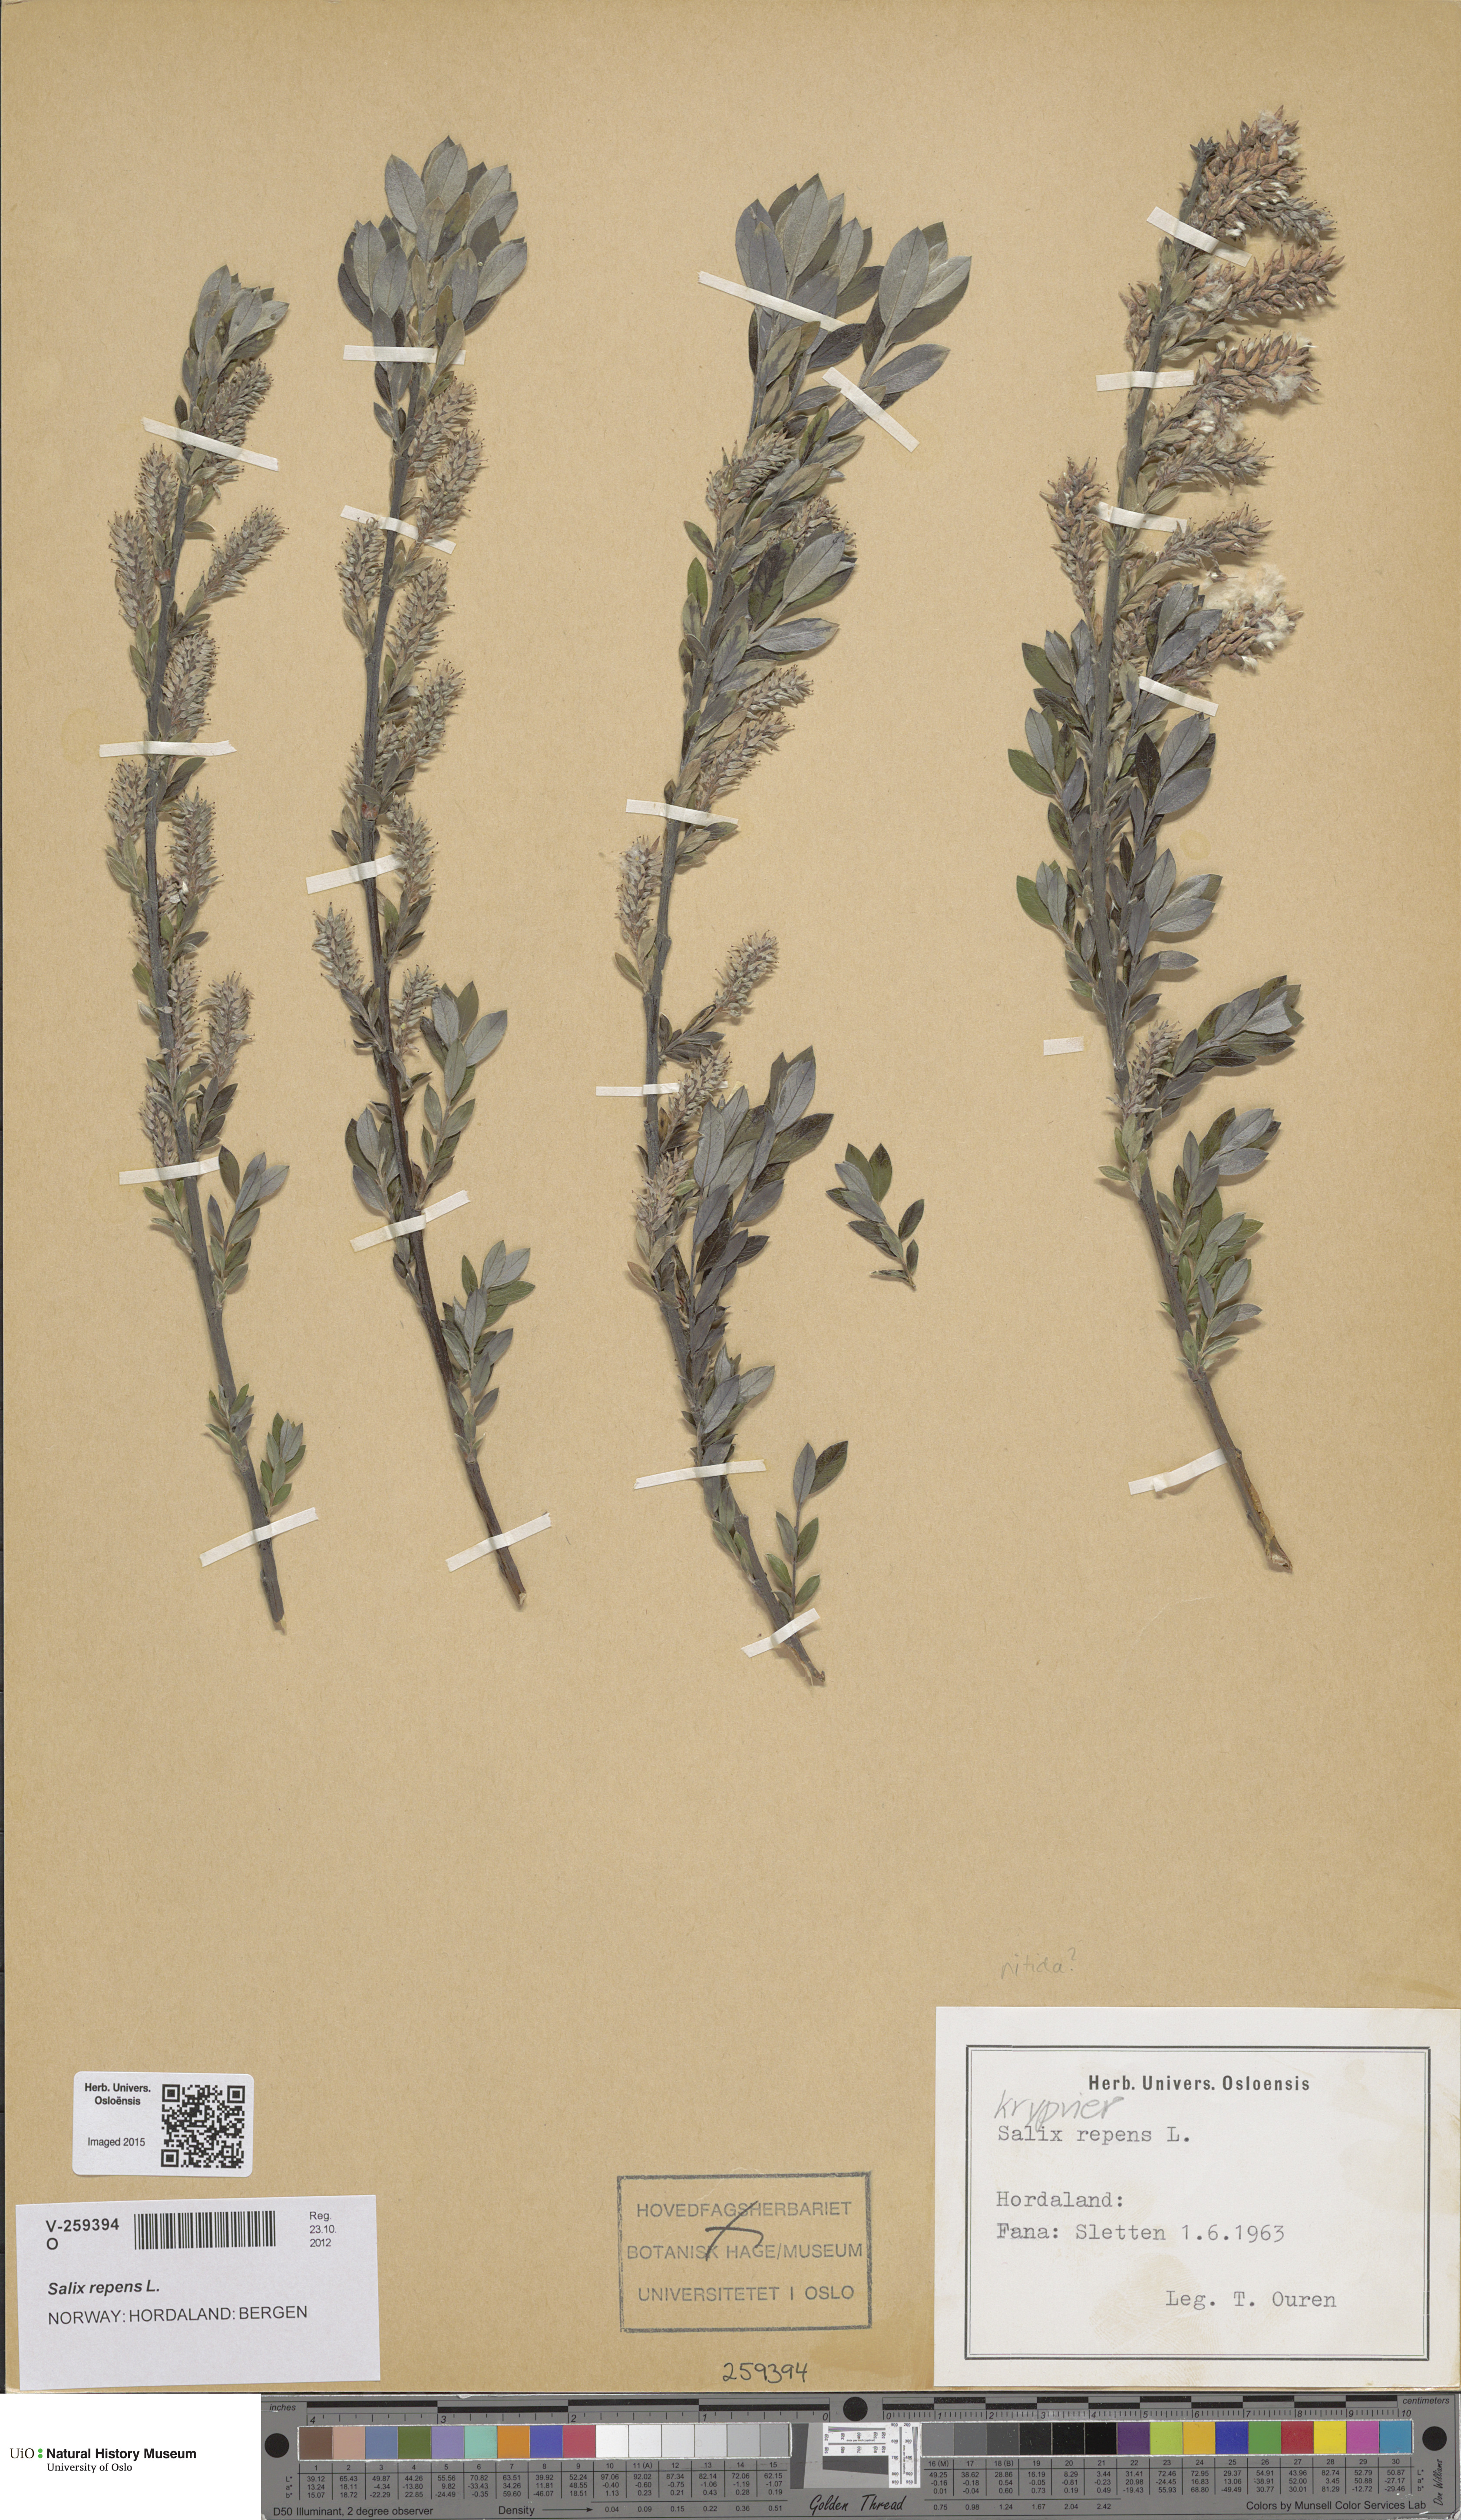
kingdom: Plantae
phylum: Tracheophyta
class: Magnoliopsida
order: Malpighiales
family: Salicaceae
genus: Salix
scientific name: Salix repens
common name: Creeping willow
